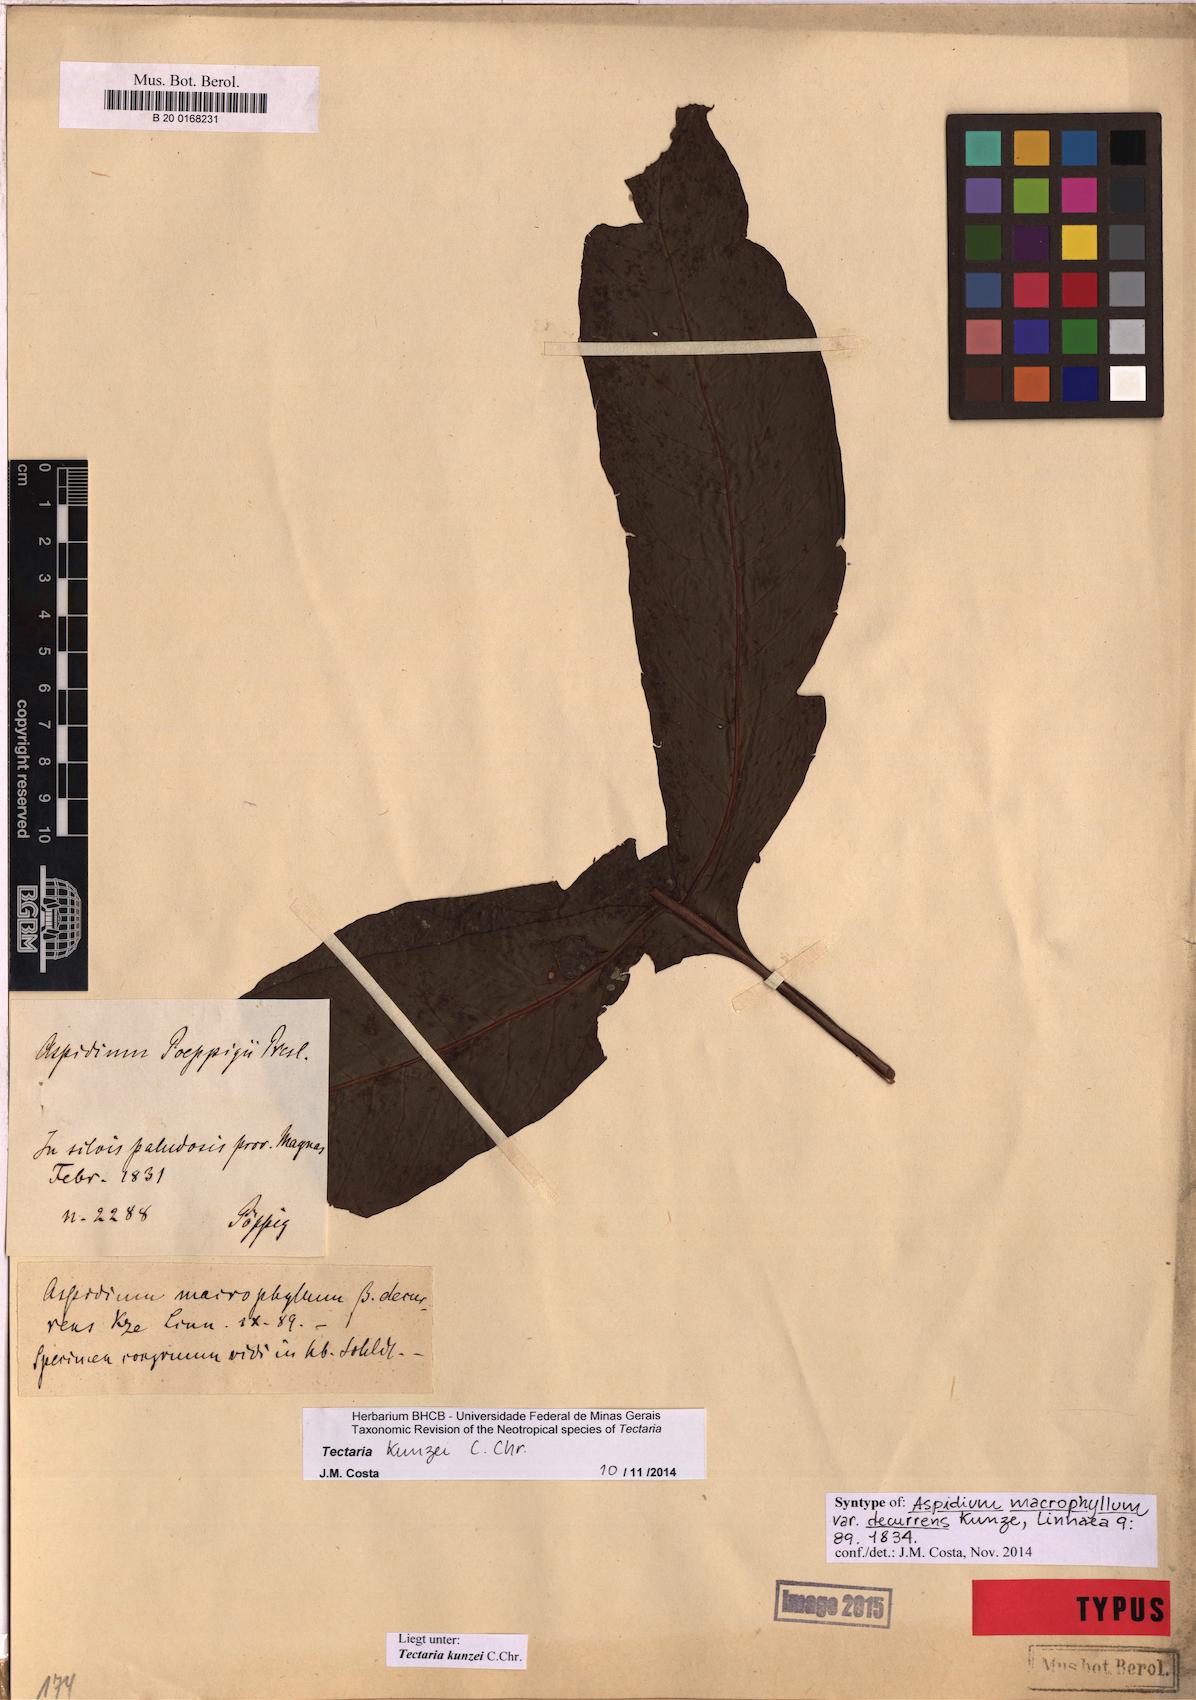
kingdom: Plantae
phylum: Tracheophyta
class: Polypodiopsida
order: Polypodiales
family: Tectariaceae
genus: Tectaria
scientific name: Tectaria kunzei
